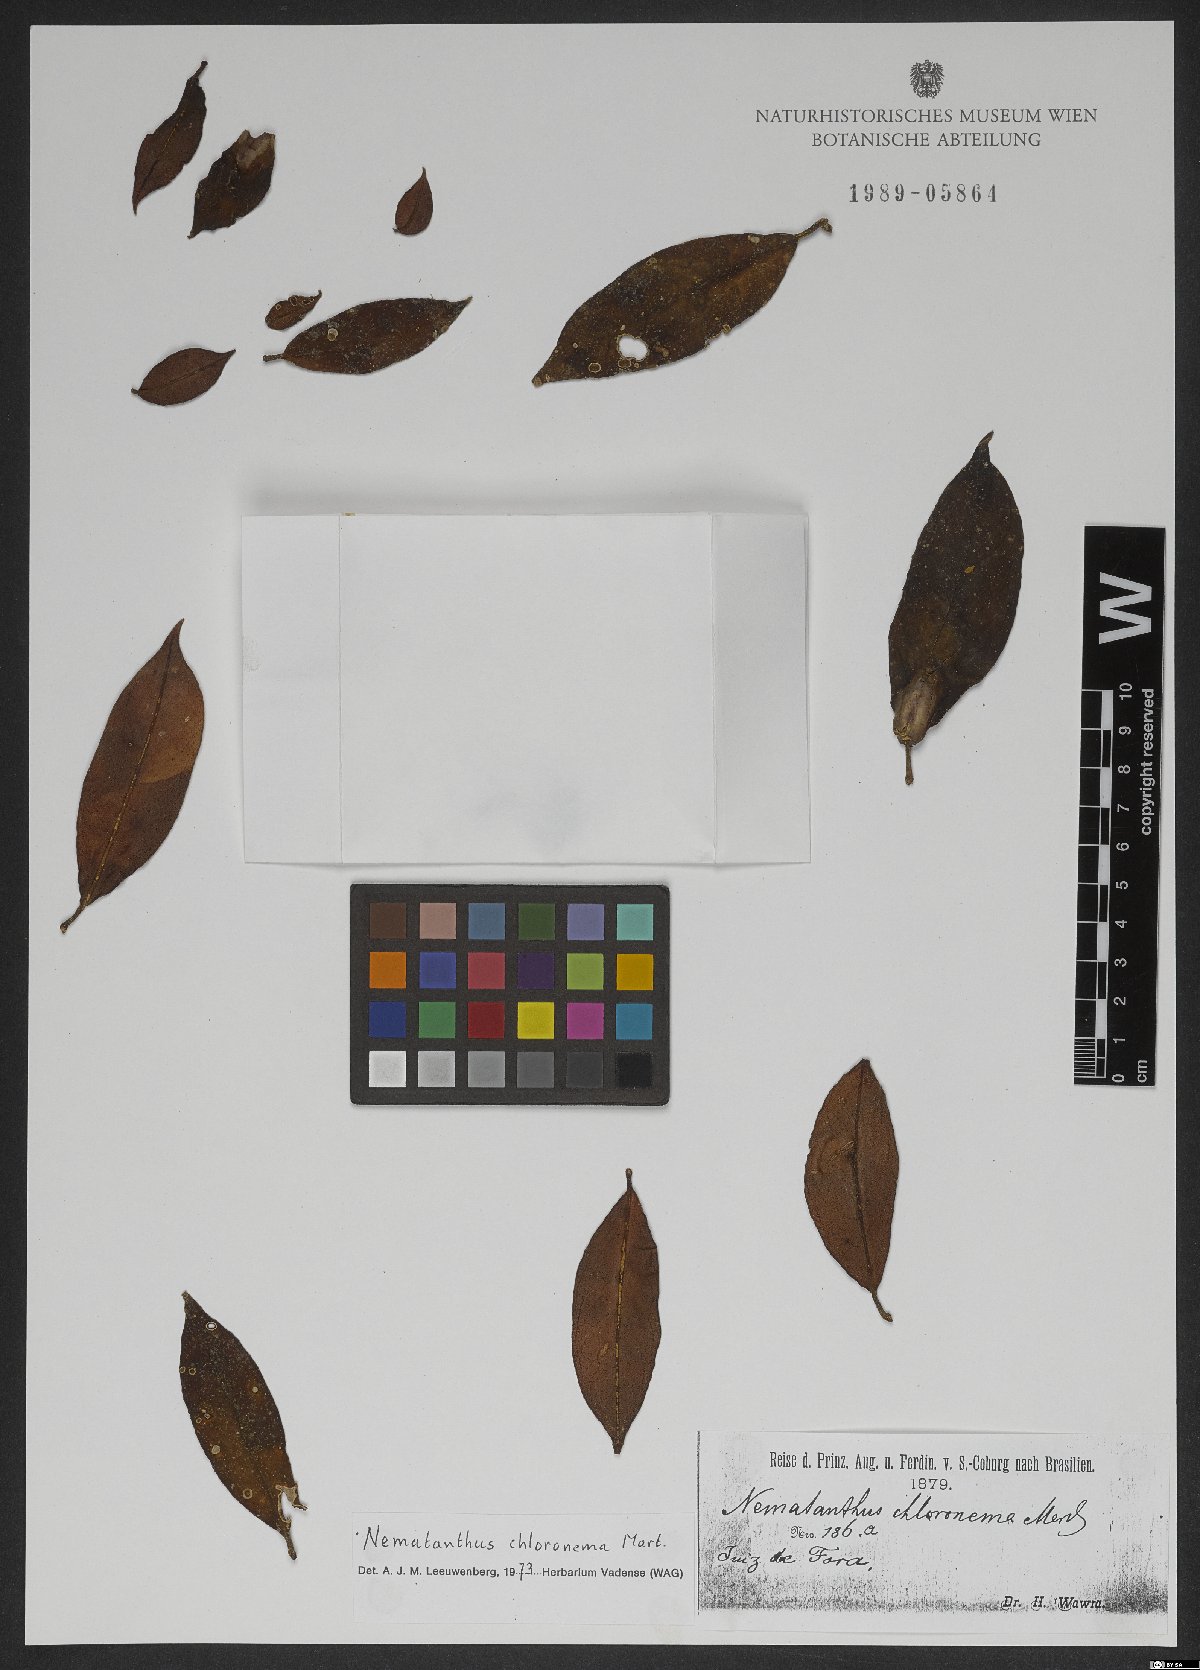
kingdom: Plantae
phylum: Tracheophyta
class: Magnoliopsida
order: Lamiales
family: Gesneriaceae
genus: Nematanthus
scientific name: Nematanthus crassifolius
